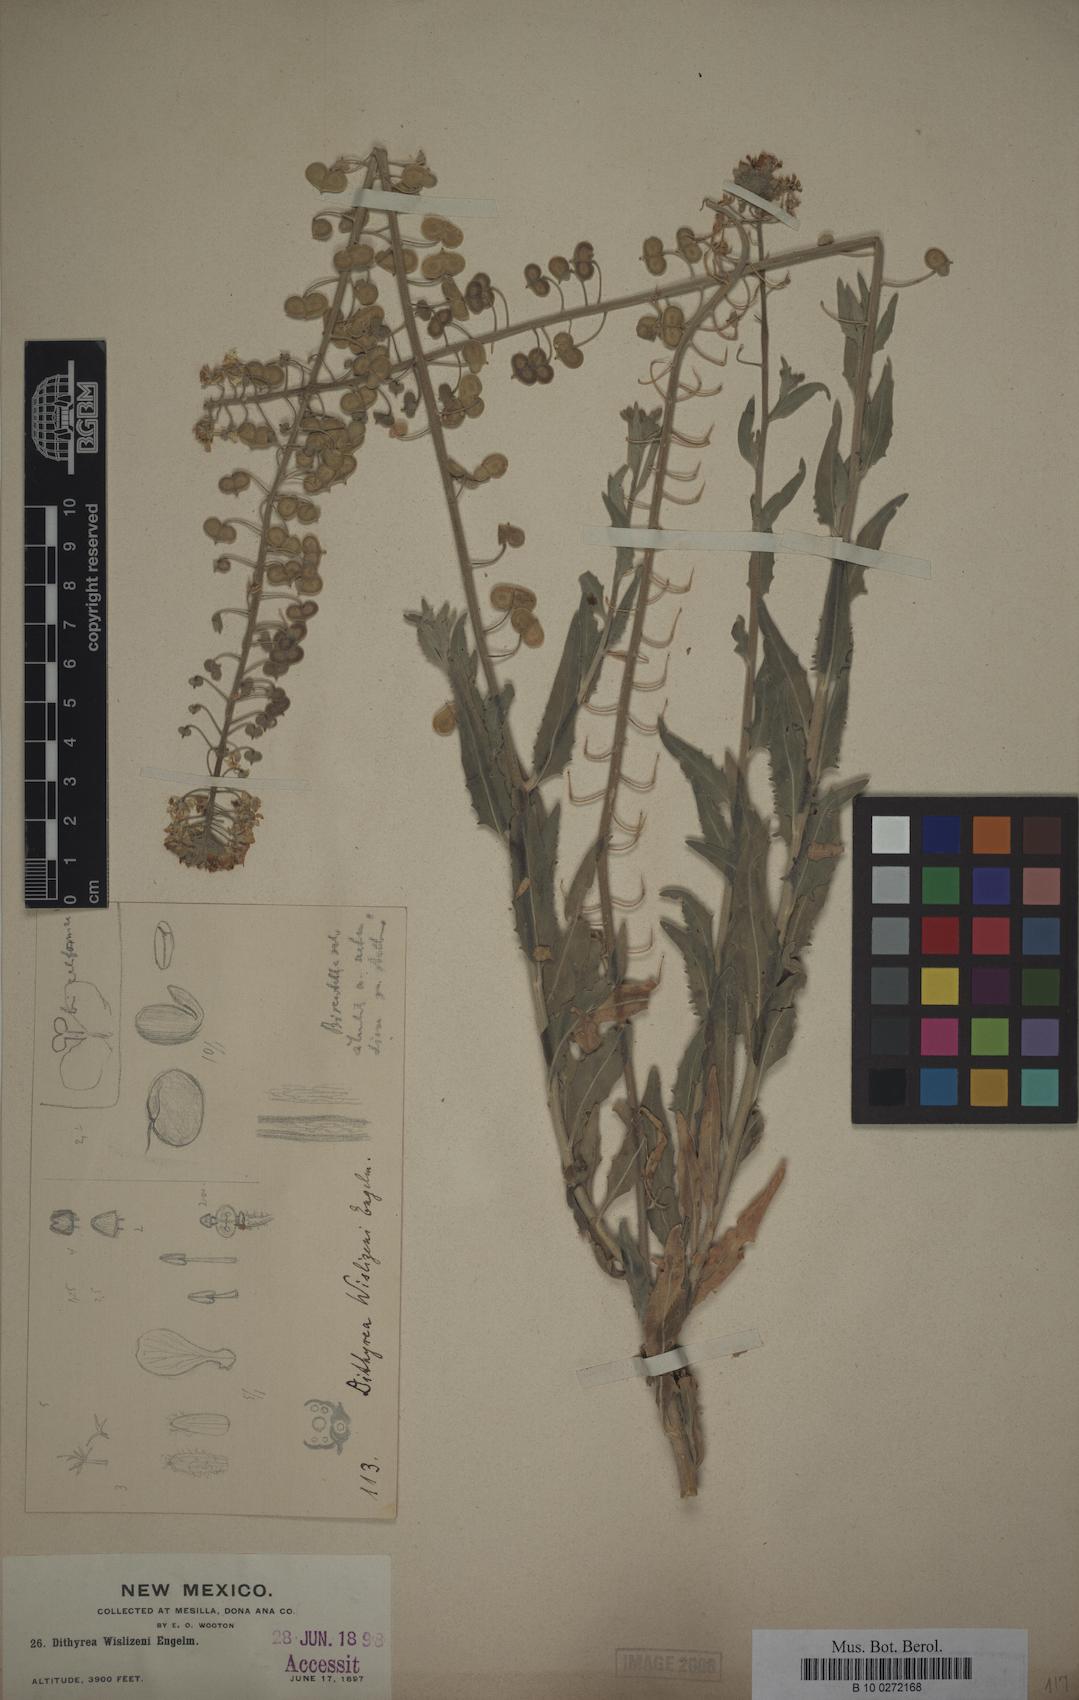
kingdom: Plantae
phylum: Tracheophyta
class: Magnoliopsida
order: Brassicales
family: Brassicaceae
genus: Dimorphocarpa
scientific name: Dimorphocarpa wislizenii
